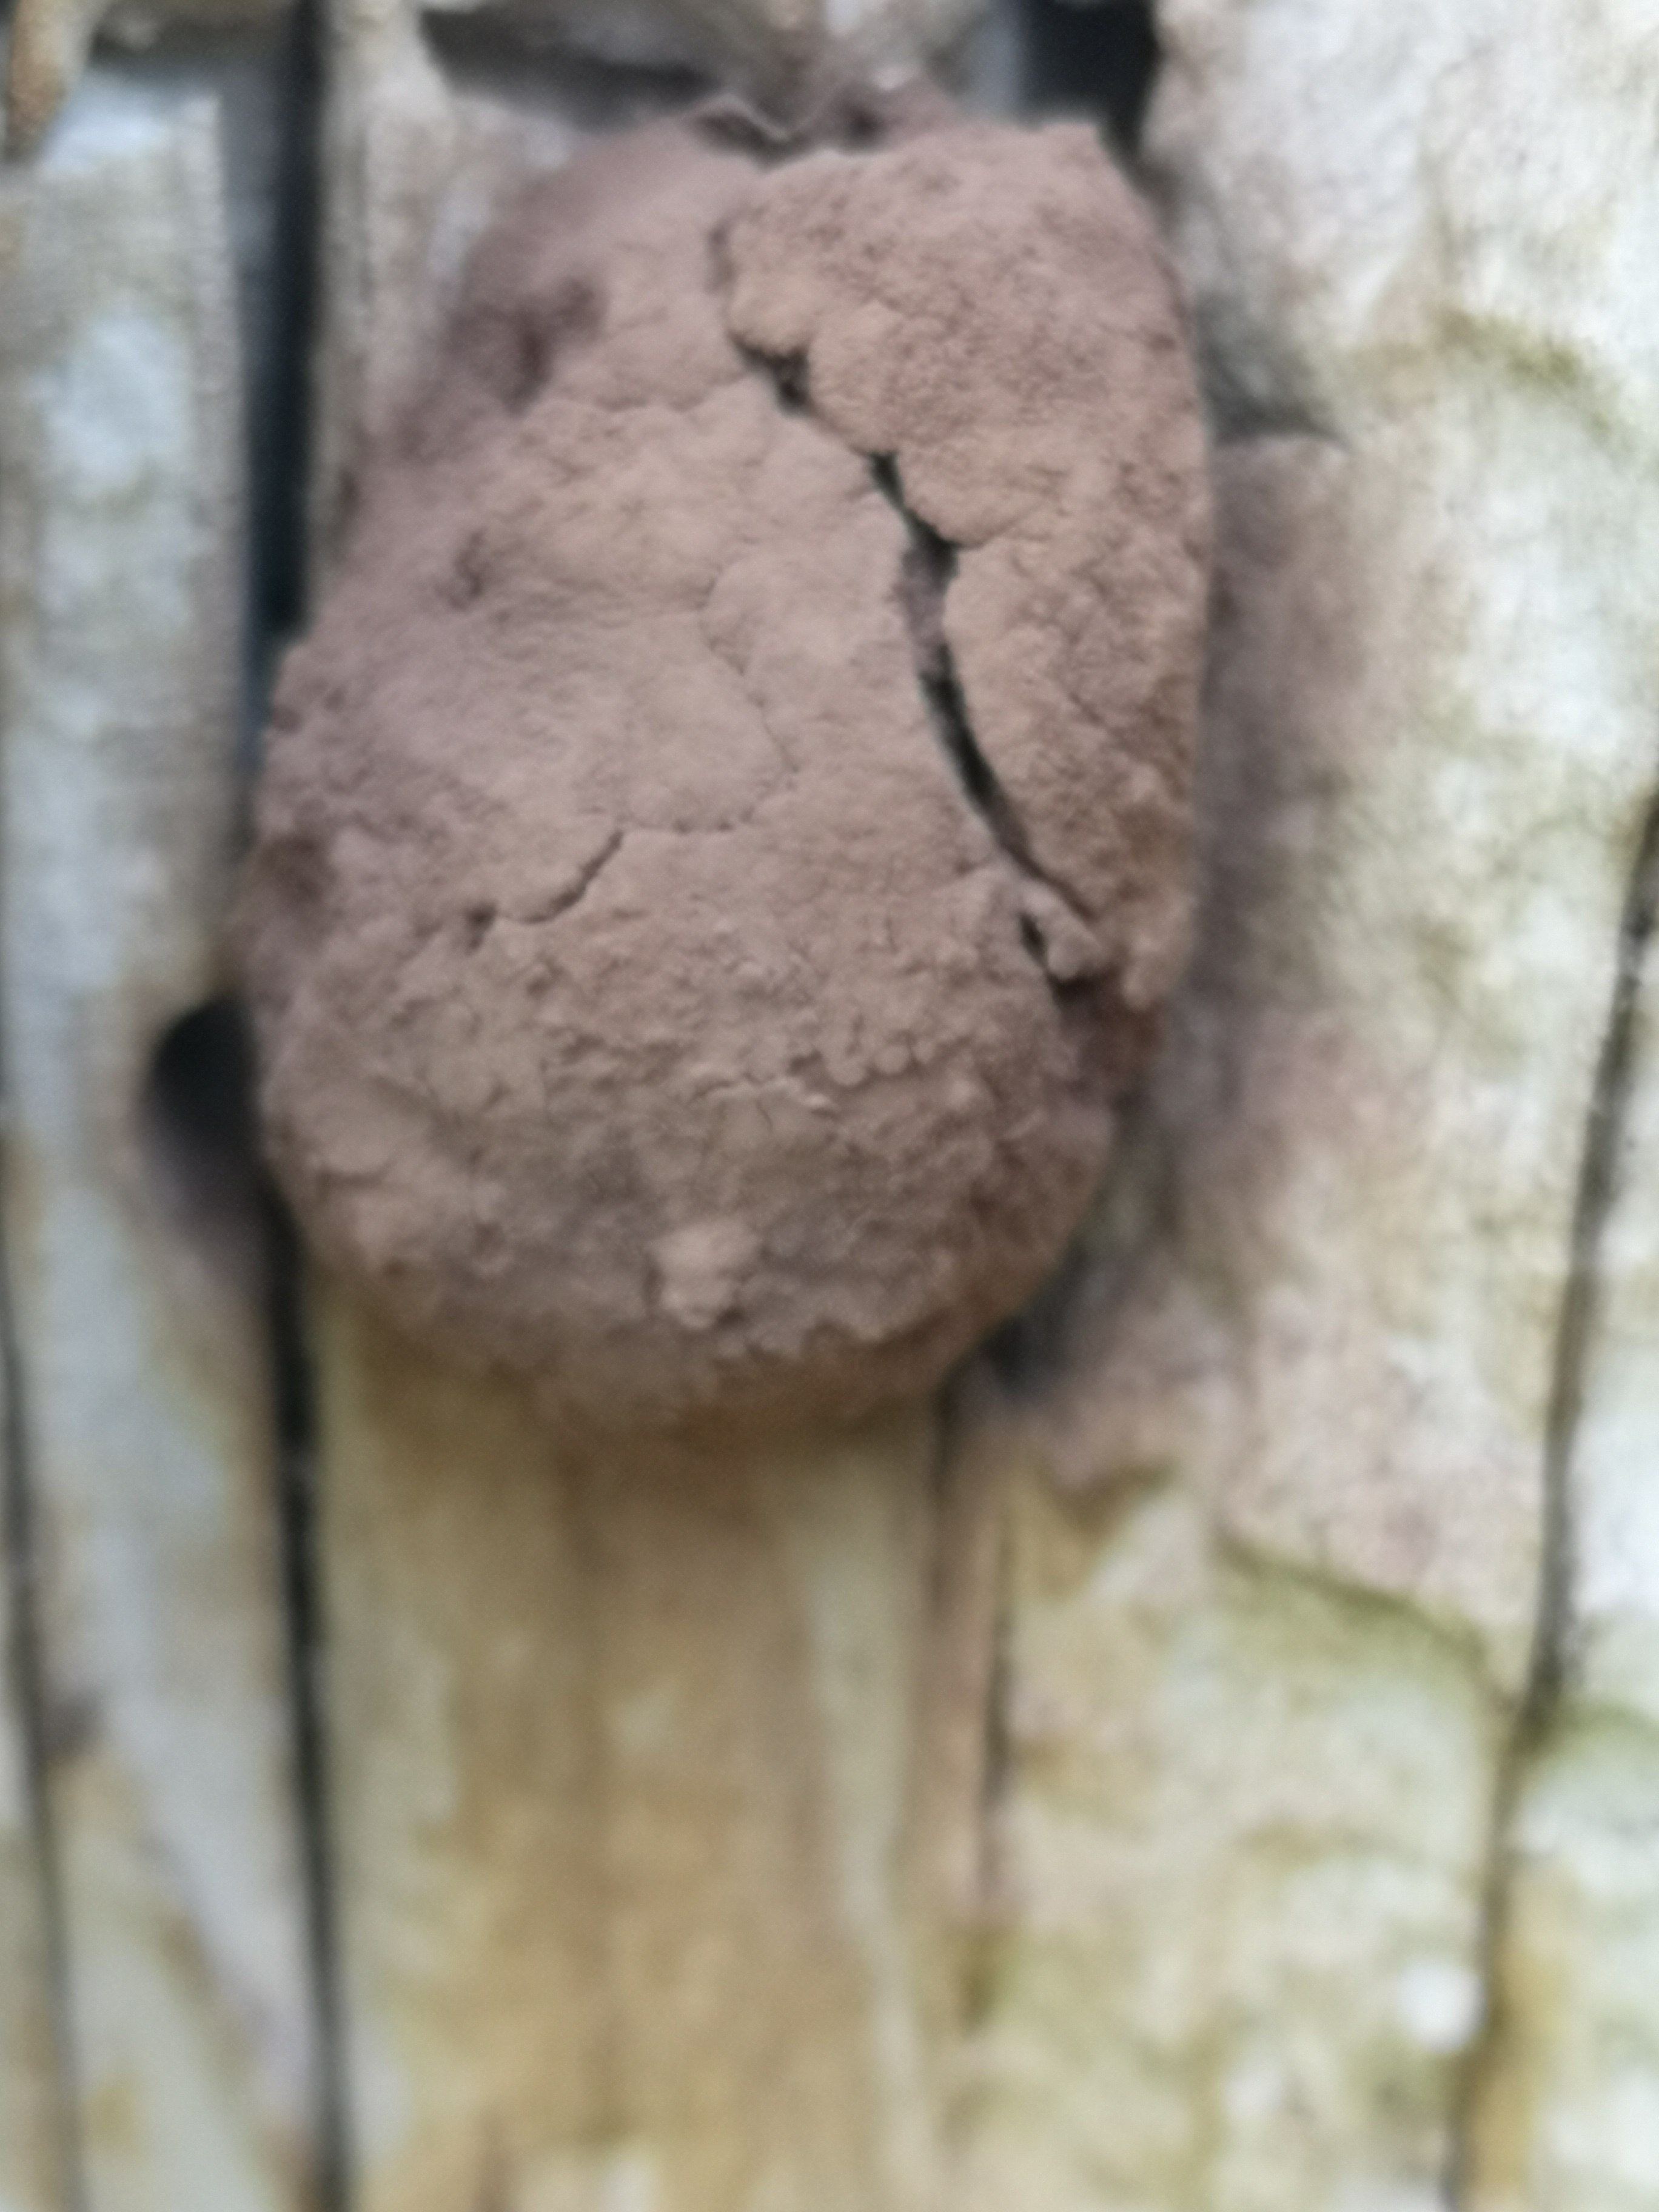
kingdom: Protozoa
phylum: Mycetozoa
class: Myxomycetes
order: Cribrariales
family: Tubiferaceae
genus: Reticularia
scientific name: Reticularia lycoperdon
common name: skinnende støvpude
